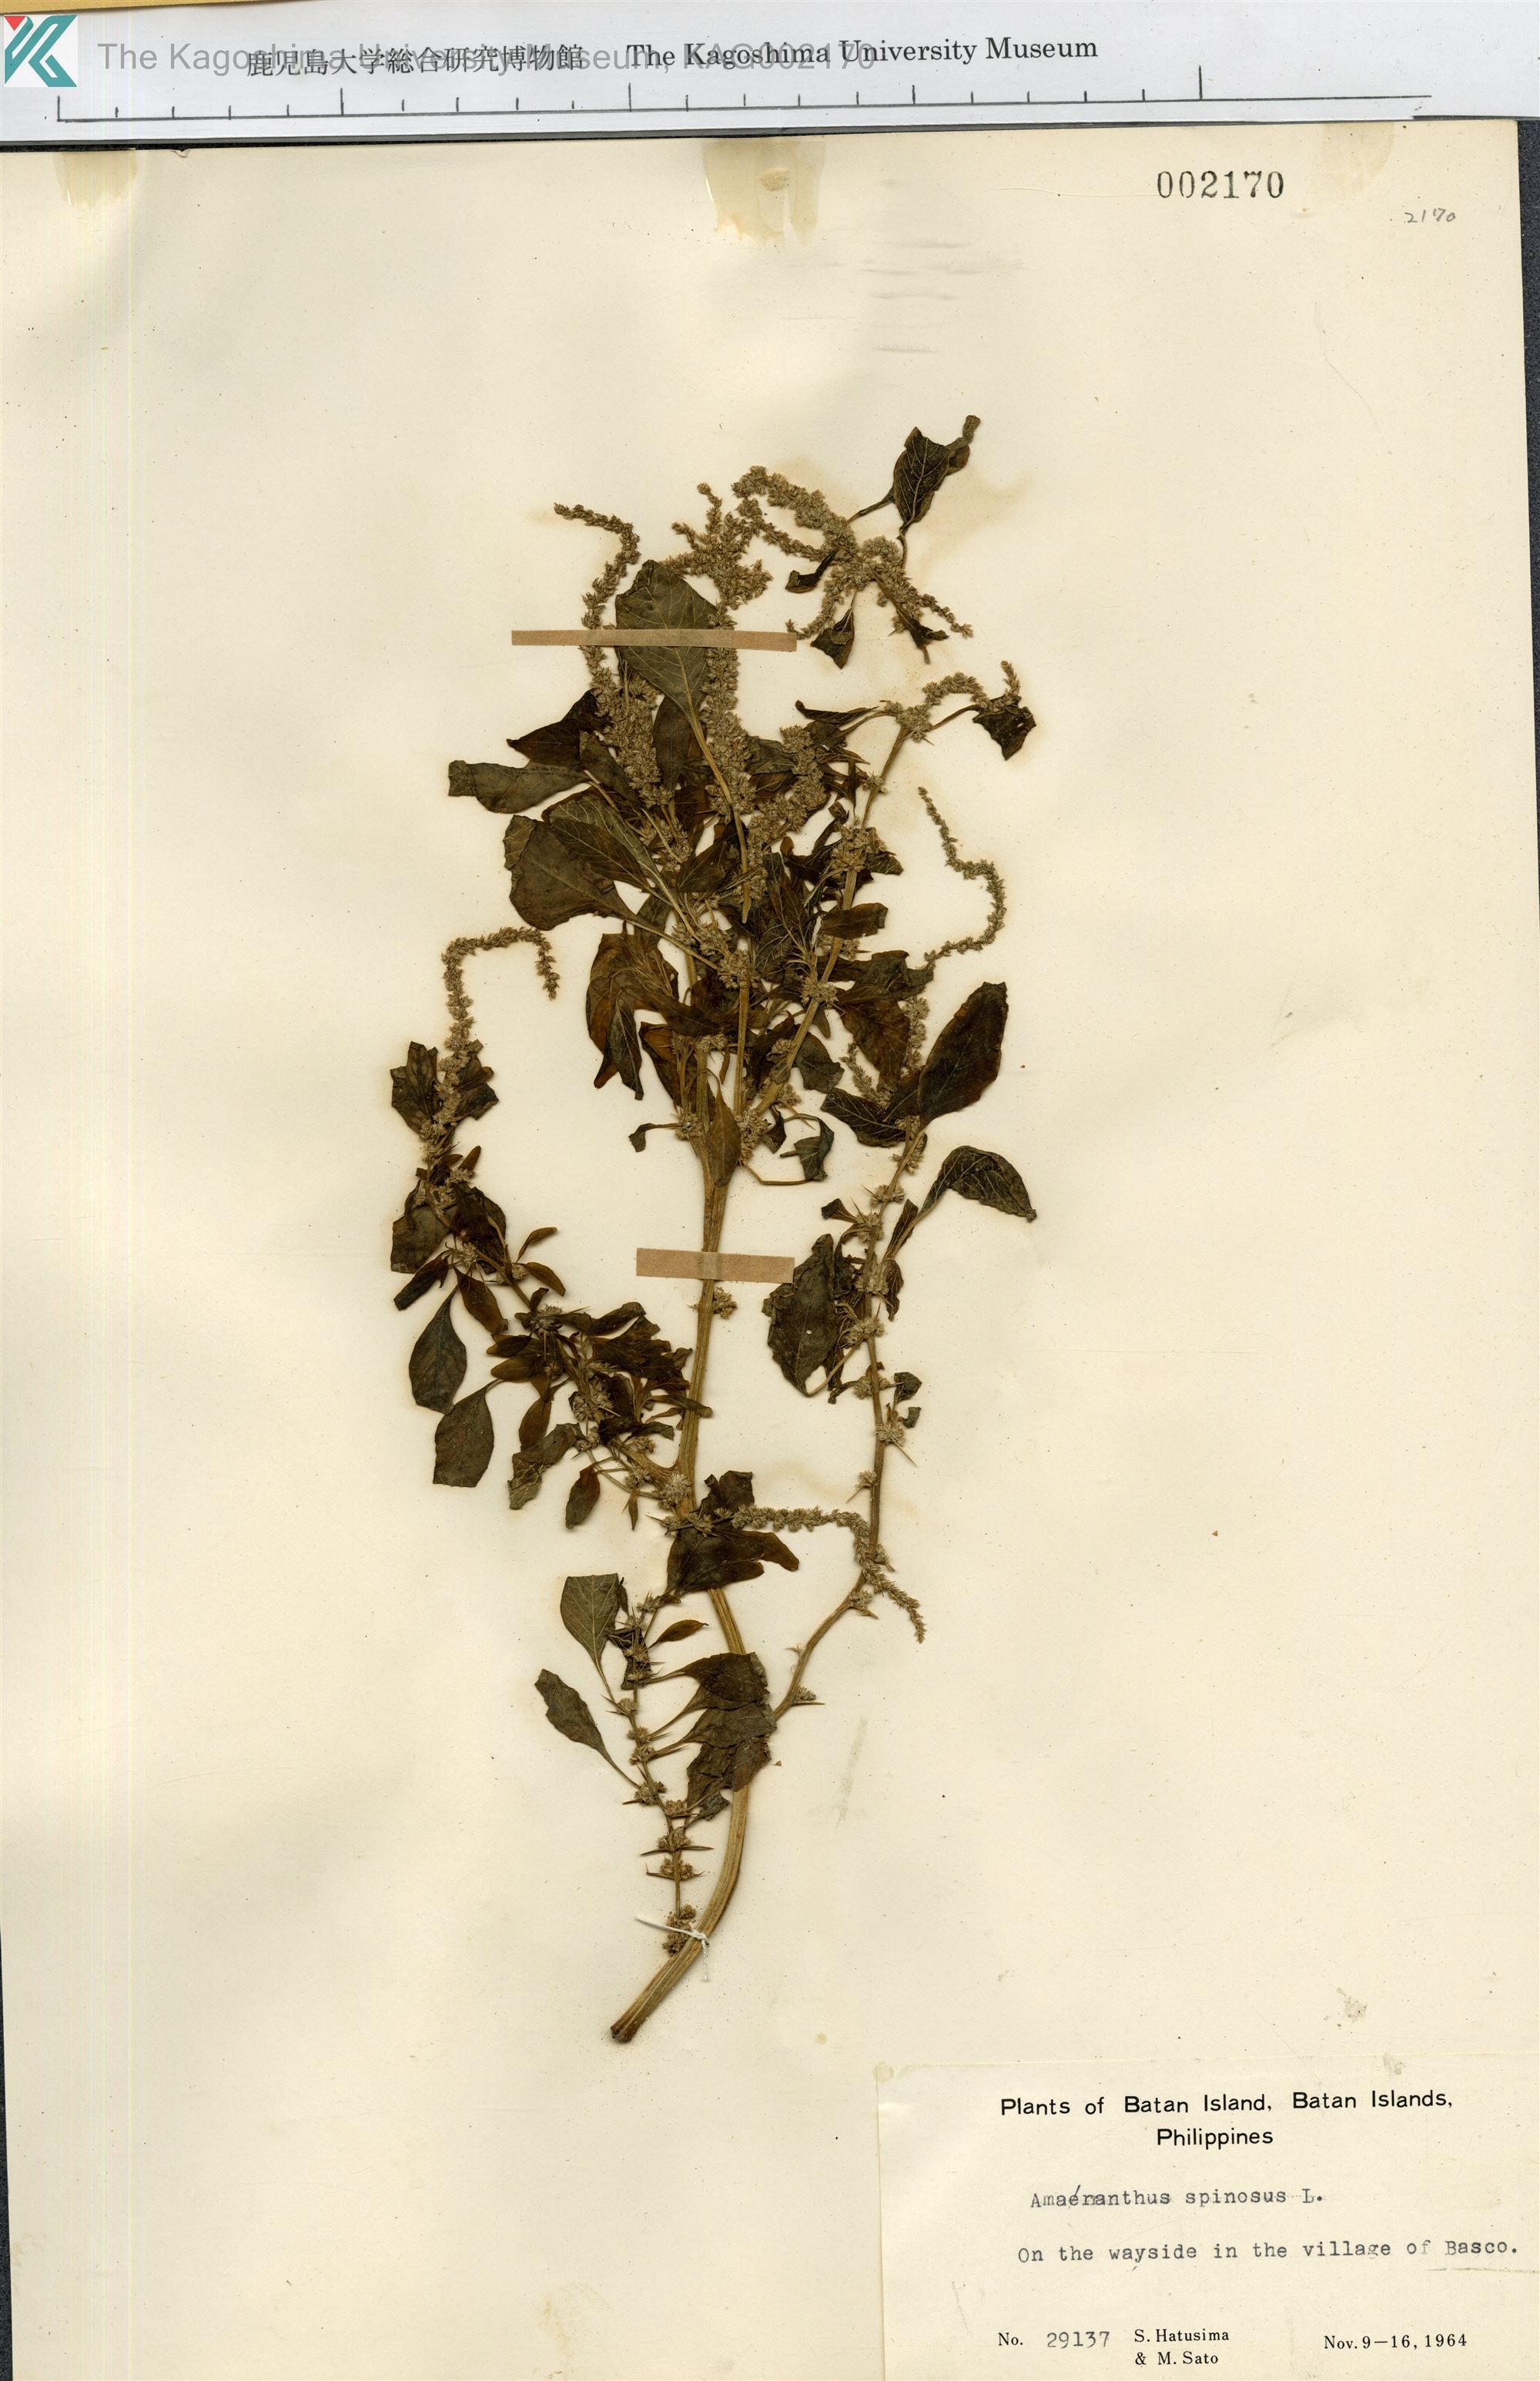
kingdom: Plantae
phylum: Tracheophyta
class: Magnoliopsida
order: Caryophyllales
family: Amaranthaceae
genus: Amaranthus
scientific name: Amaranthus spinosus
